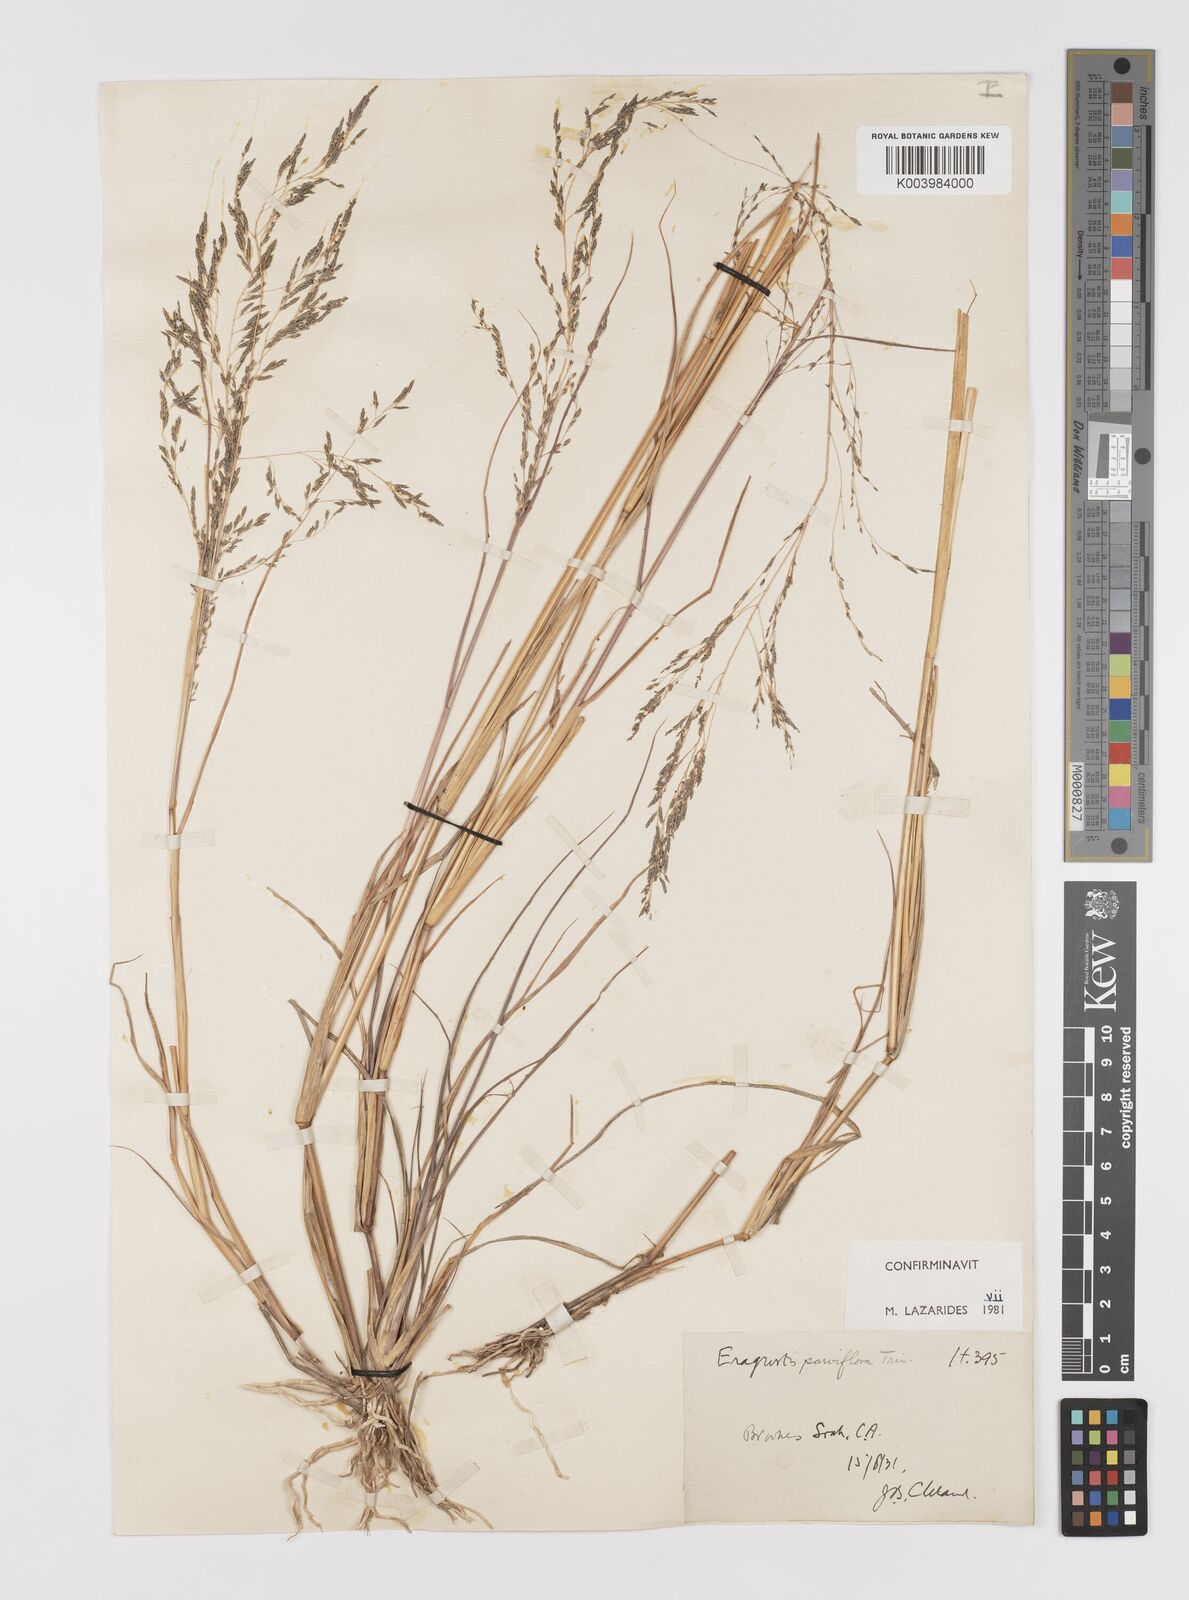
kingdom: Plantae
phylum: Tracheophyta
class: Liliopsida
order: Poales
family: Poaceae
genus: Eragrostis
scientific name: Eragrostis parviflora
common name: Weeping love-grass
